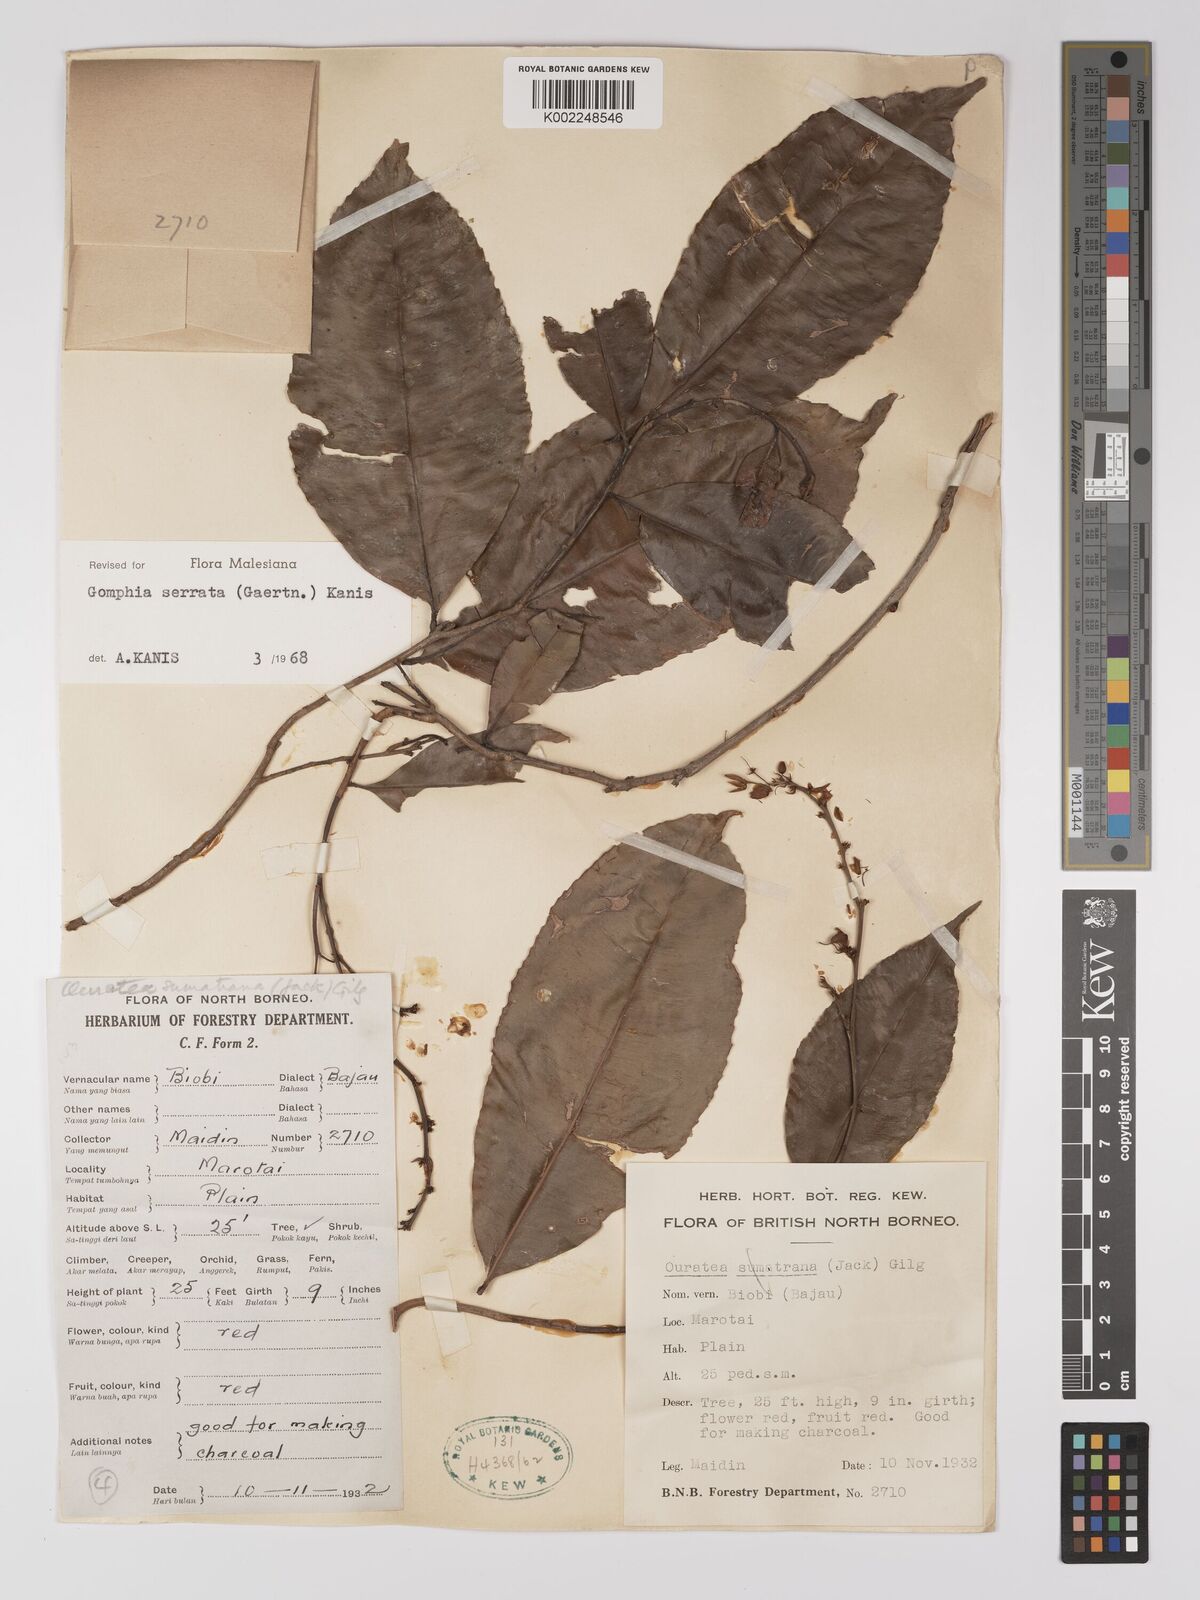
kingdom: Plantae
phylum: Tracheophyta
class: Magnoliopsida
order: Malpighiales
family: Ochnaceae
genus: Gomphia
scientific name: Gomphia serrata
